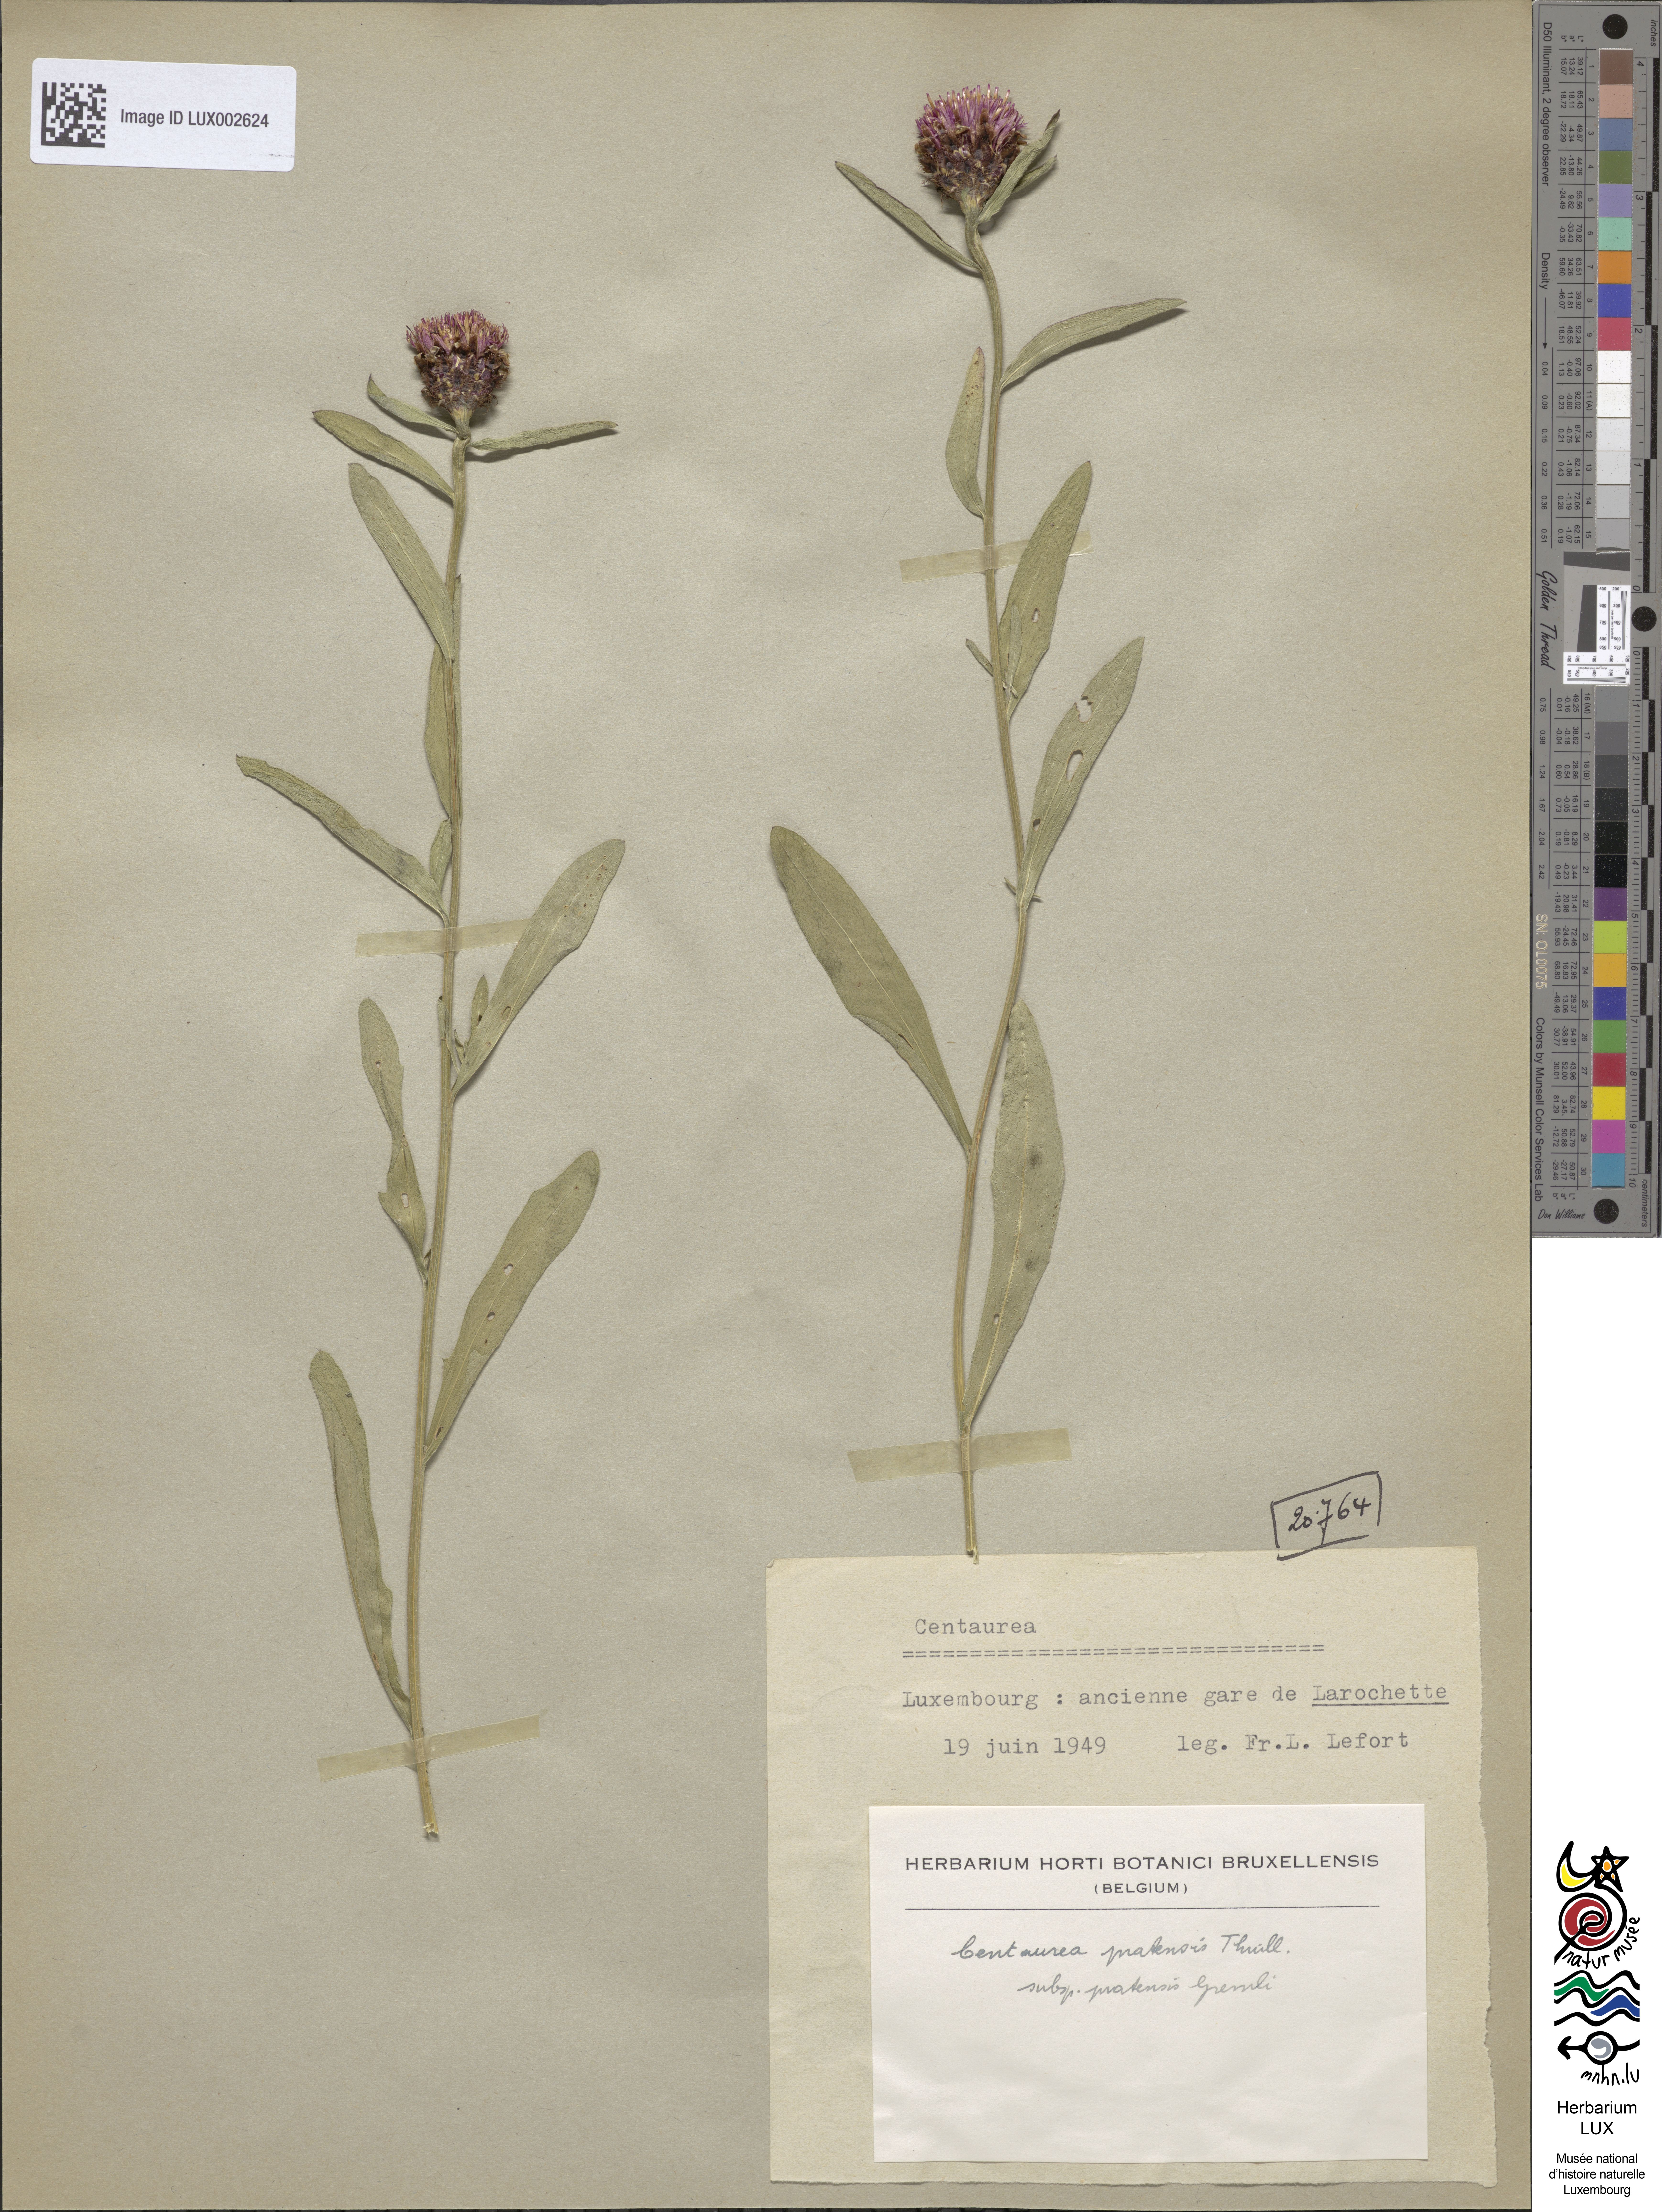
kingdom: Plantae
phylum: Tracheophyta
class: Magnoliopsida
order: Asterales
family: Asteraceae
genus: Centaurea
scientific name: Centaurea
